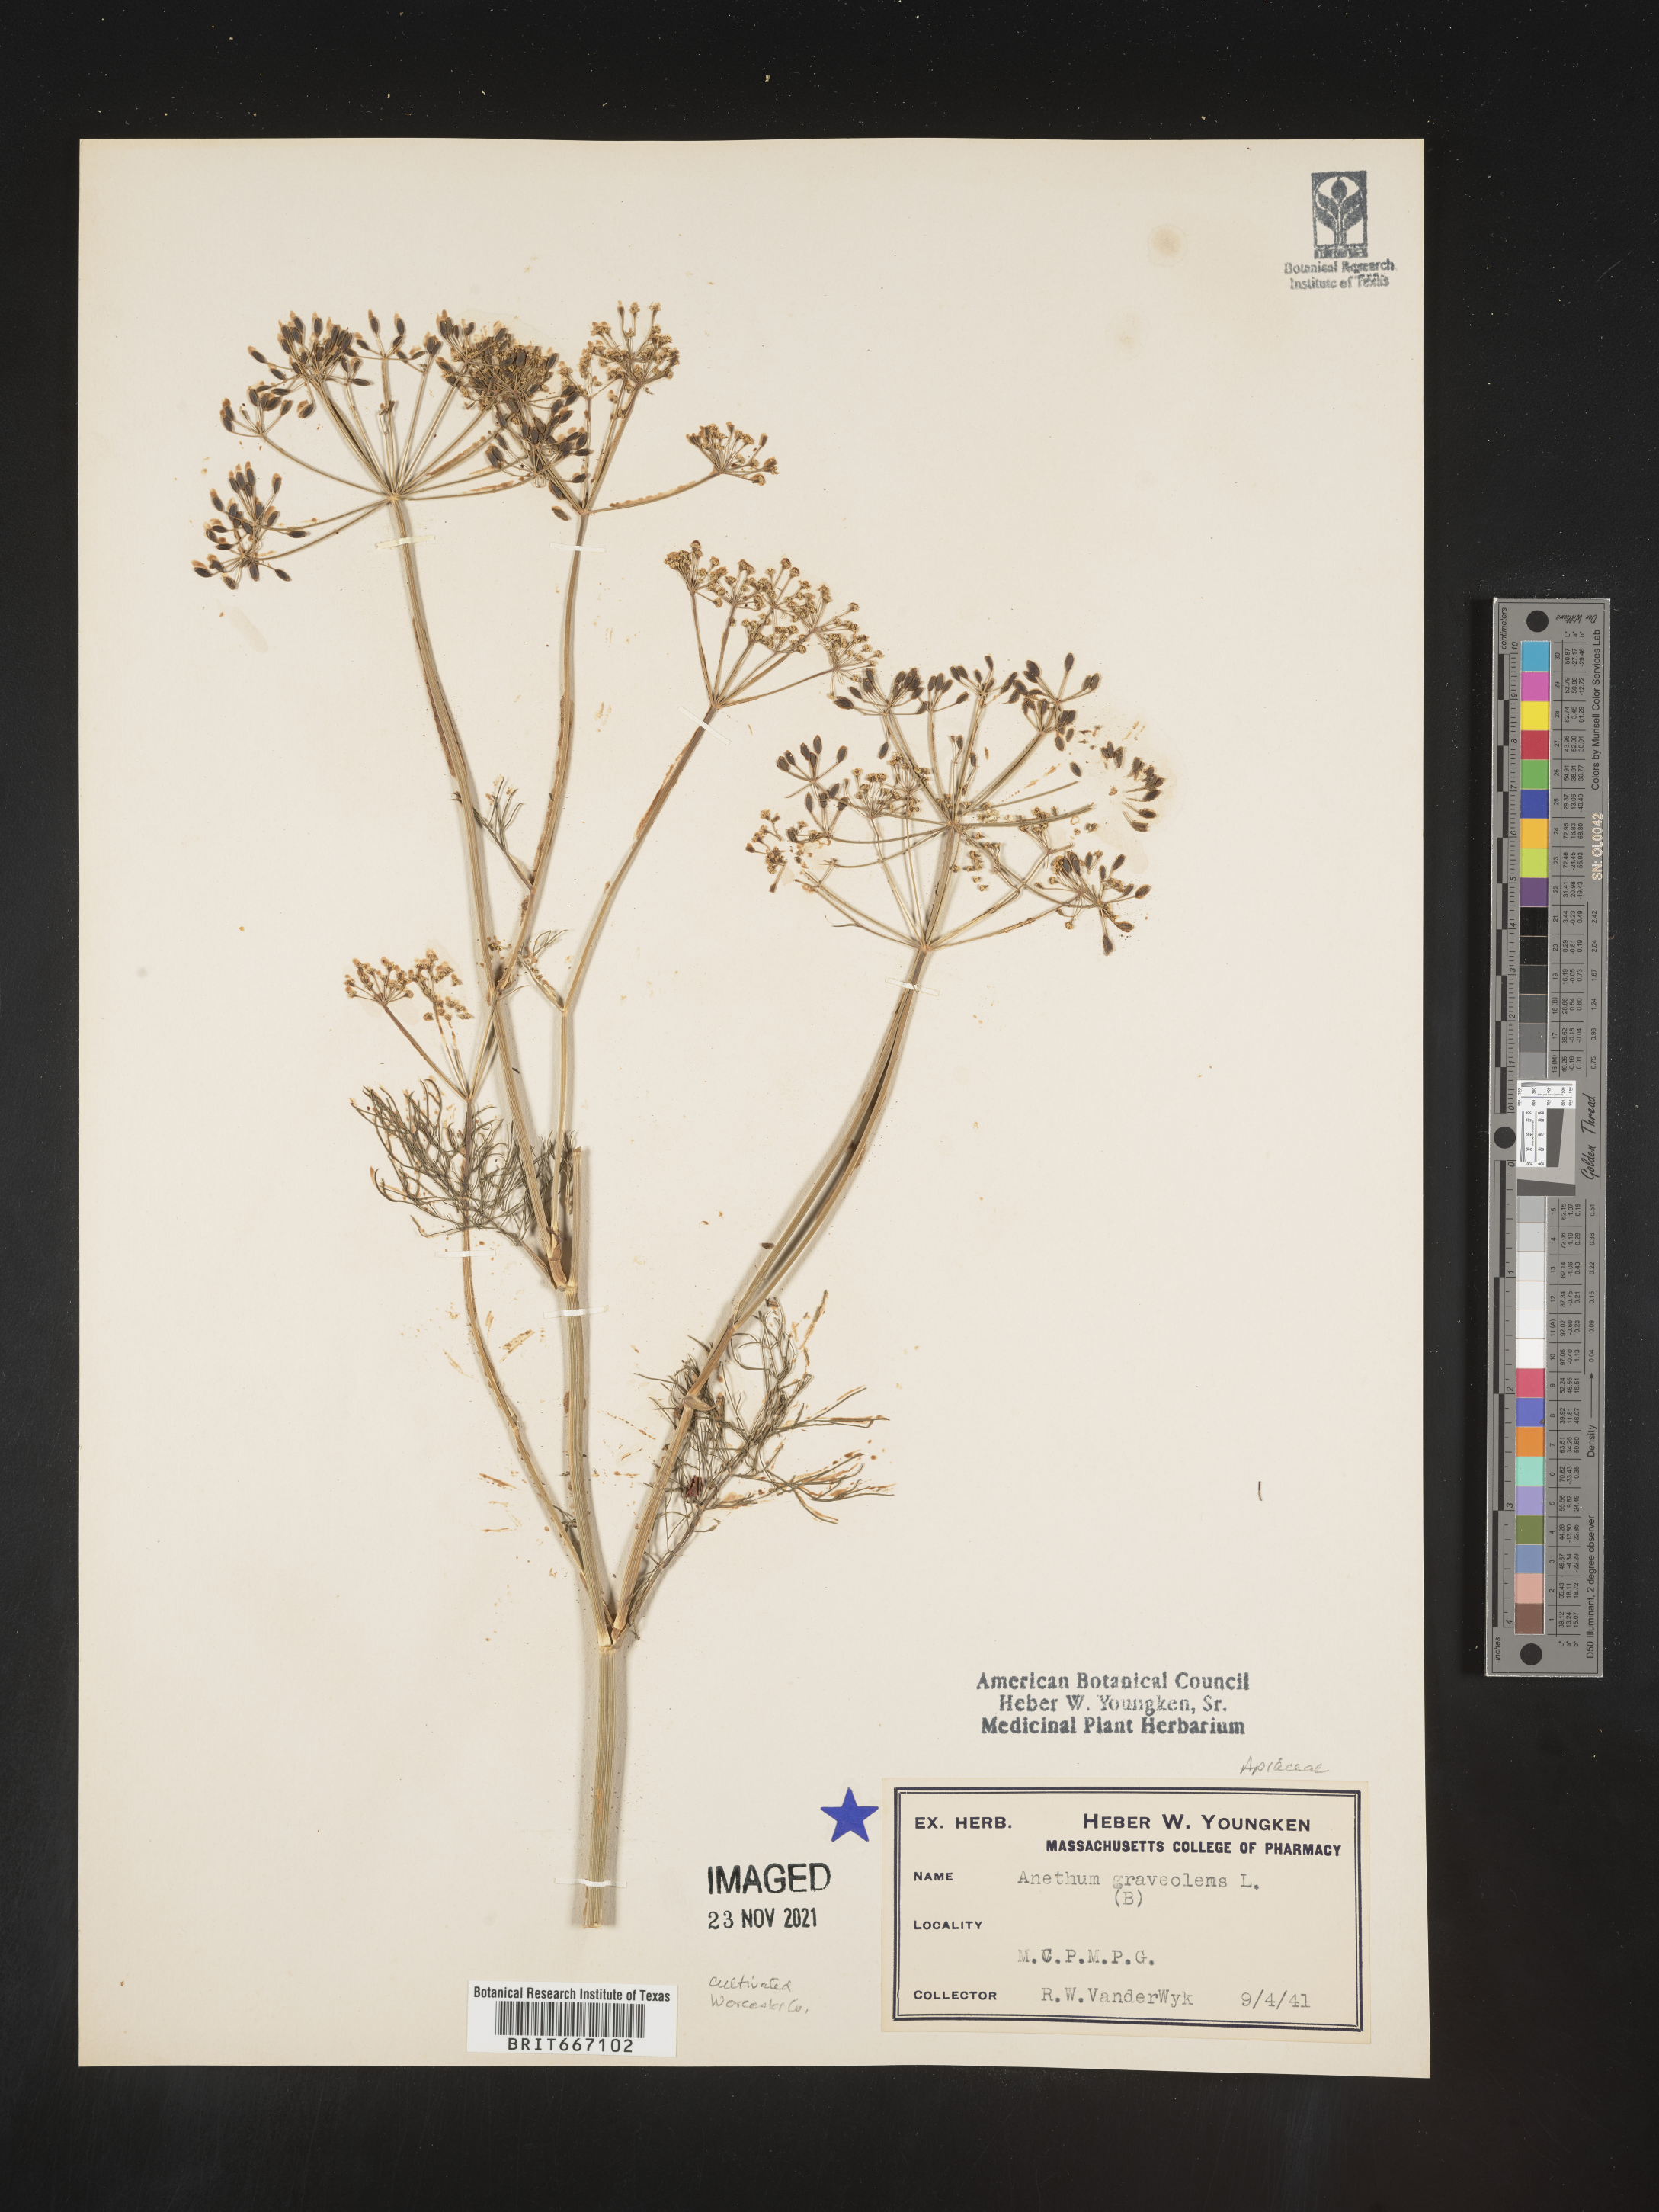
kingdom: Plantae
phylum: Tracheophyta
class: Magnoliopsida
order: Apiales
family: Apiaceae
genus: Anethum
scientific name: Anethum
